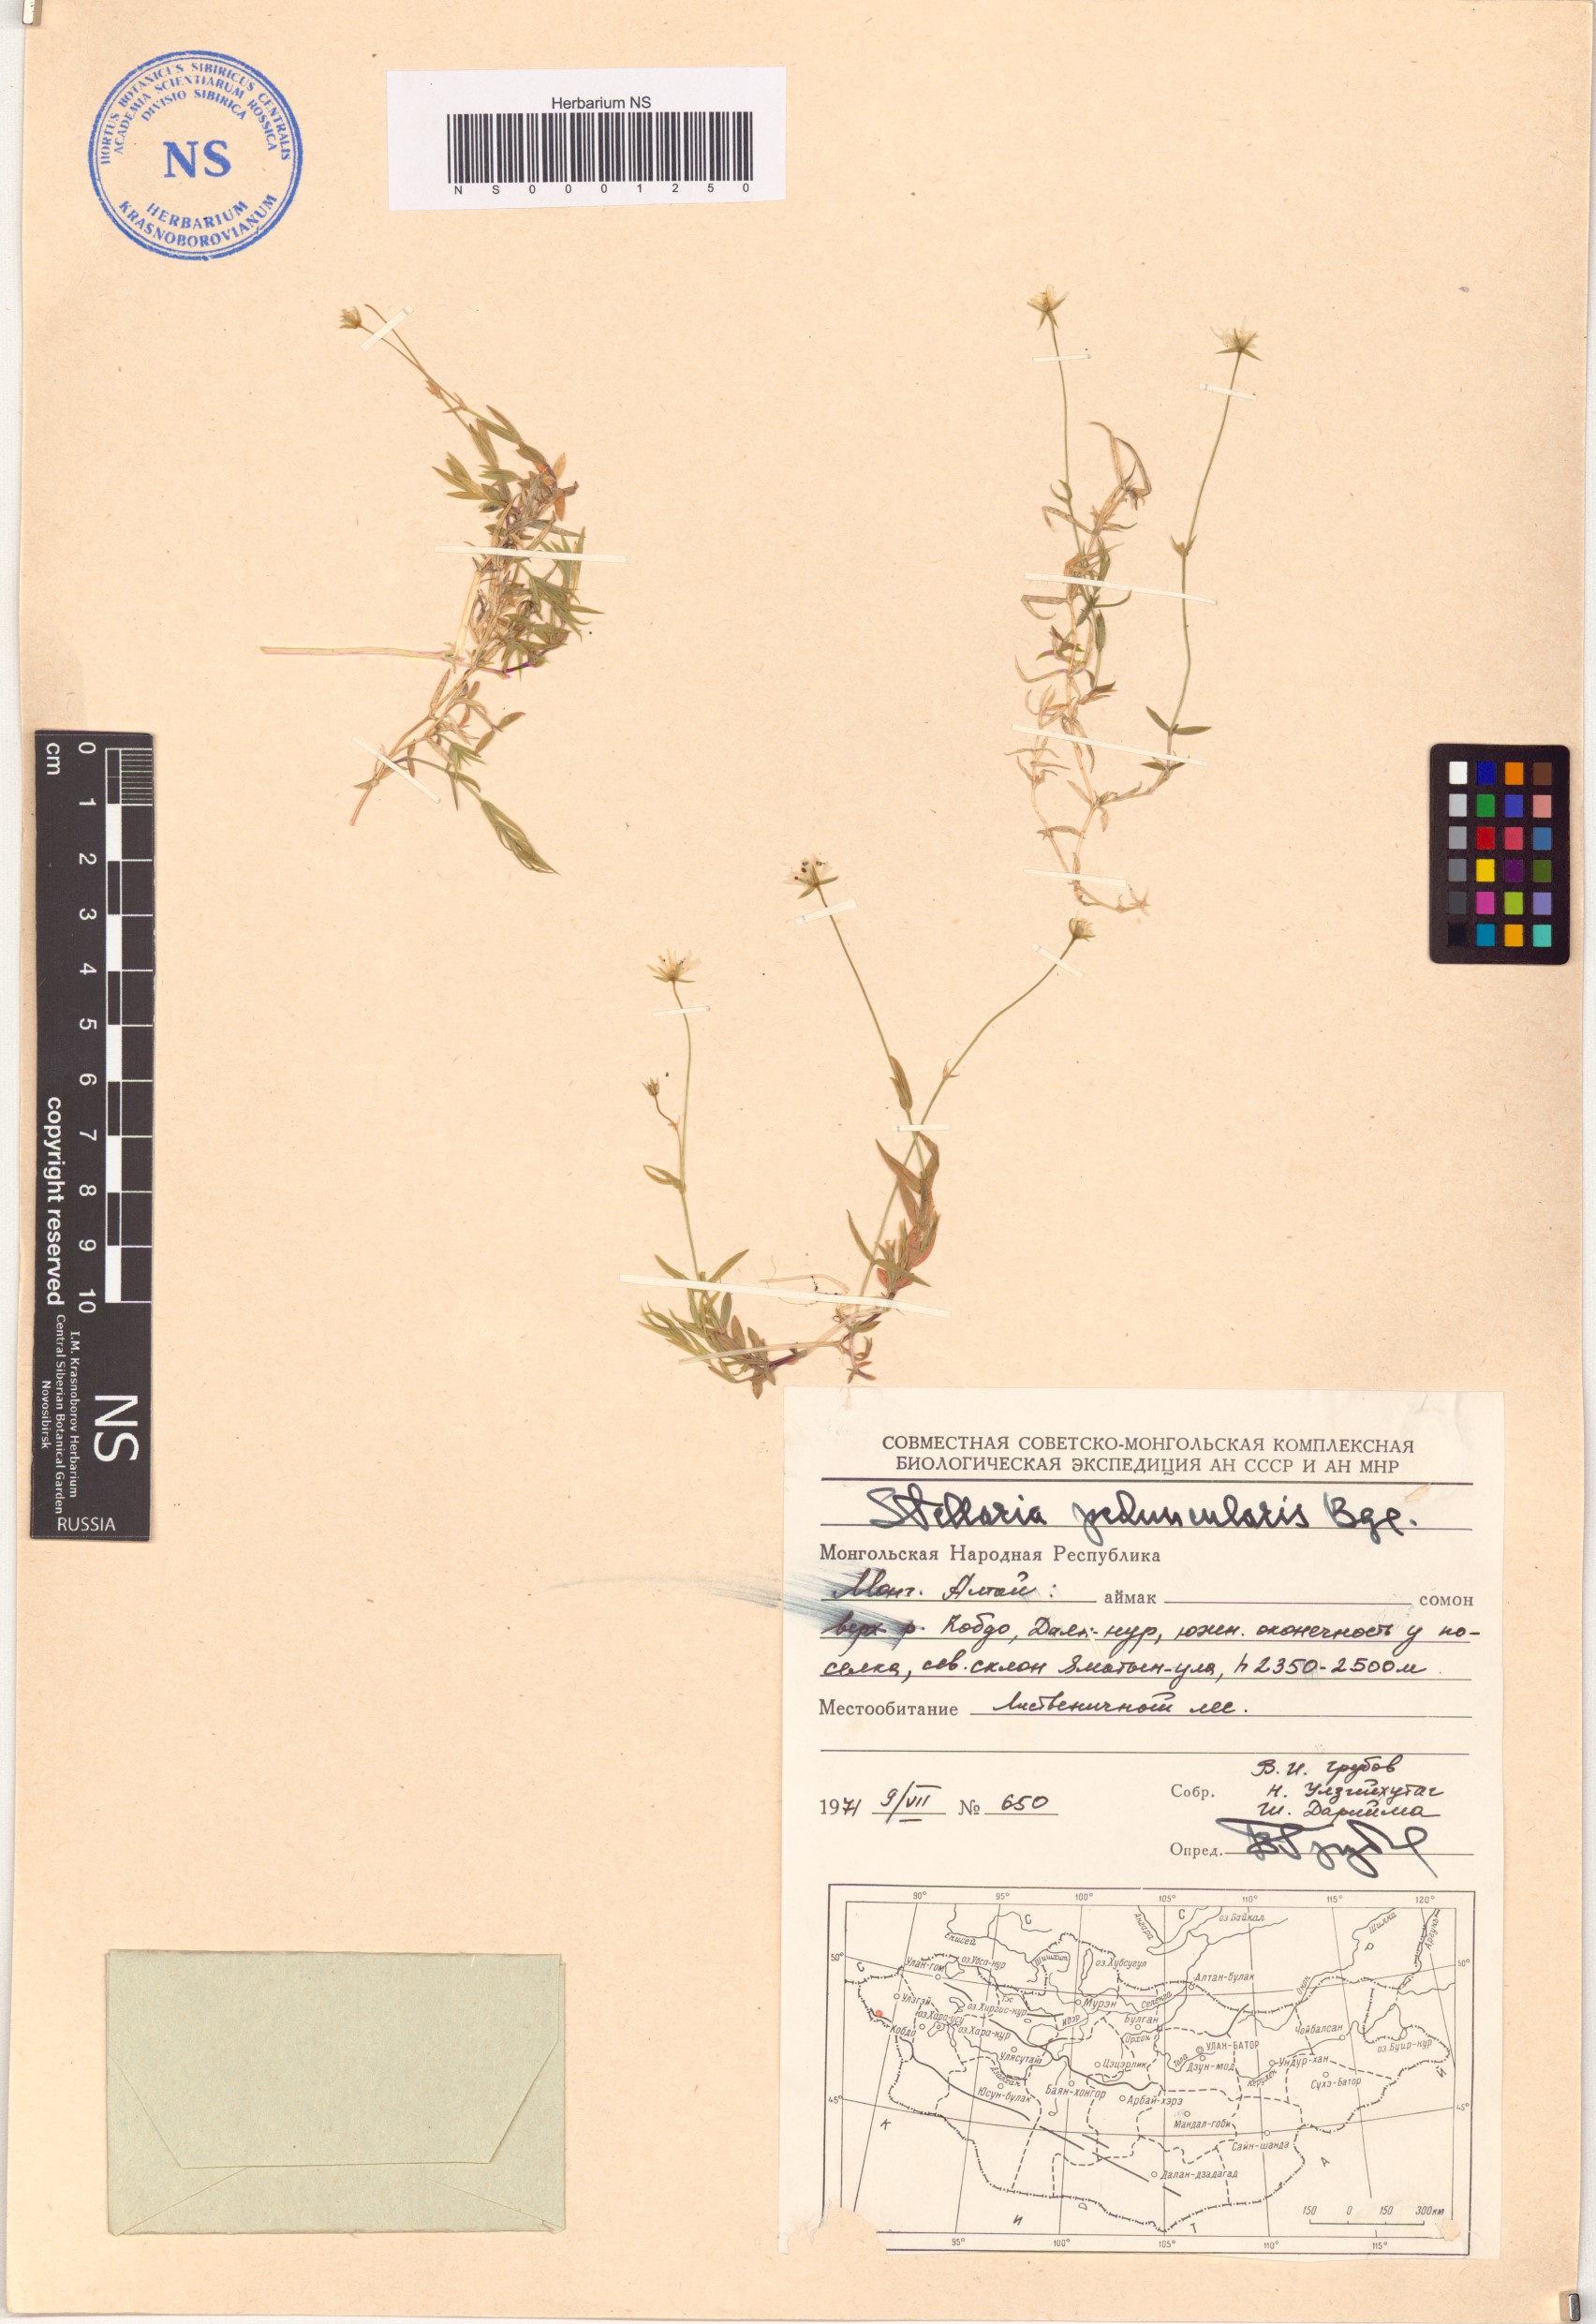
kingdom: Plantae
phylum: Tracheophyta
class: Magnoliopsida
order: Caryophyllales
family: Caryophyllaceae
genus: Stellaria
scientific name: Stellaria peduncularis
